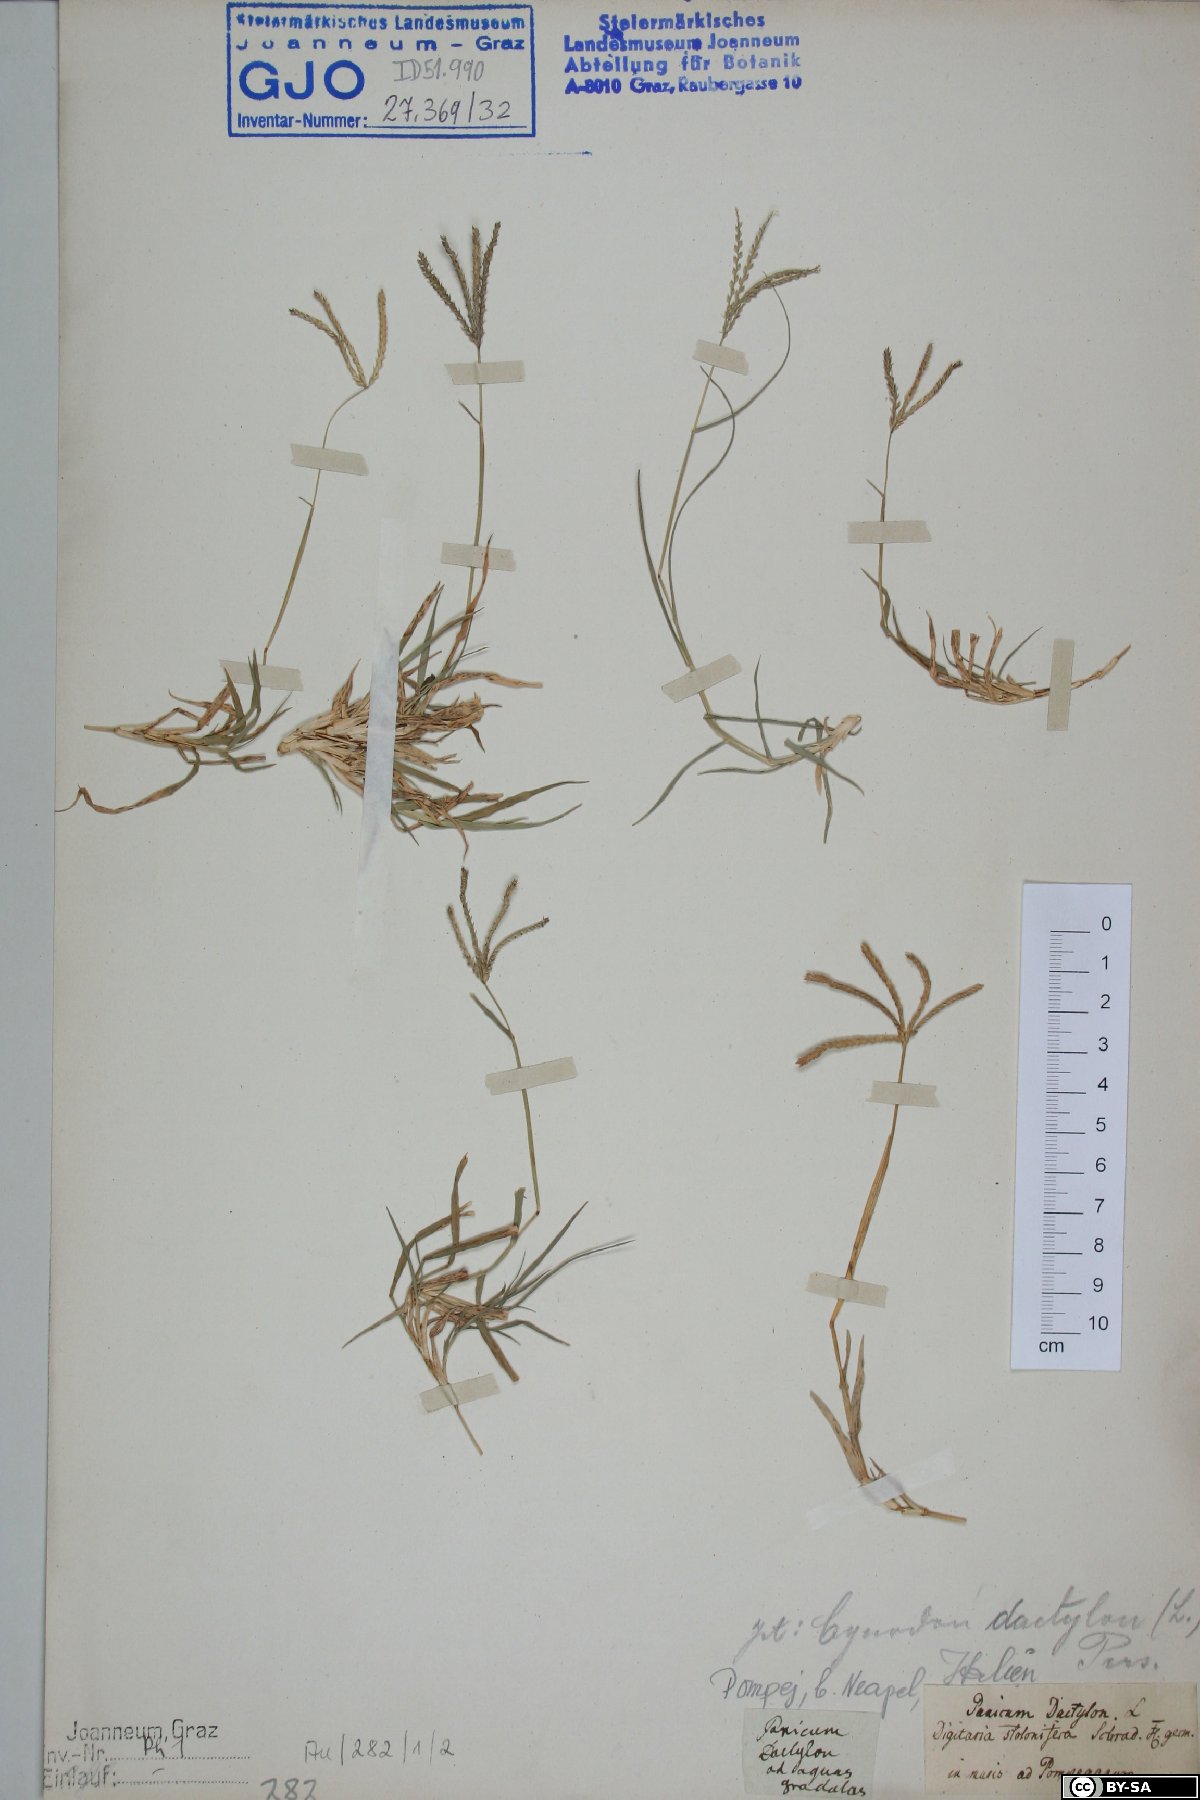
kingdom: Plantae
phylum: Tracheophyta
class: Liliopsida
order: Poales
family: Poaceae
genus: Cynodon
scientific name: Cynodon dactylon
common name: Bermuda grass
